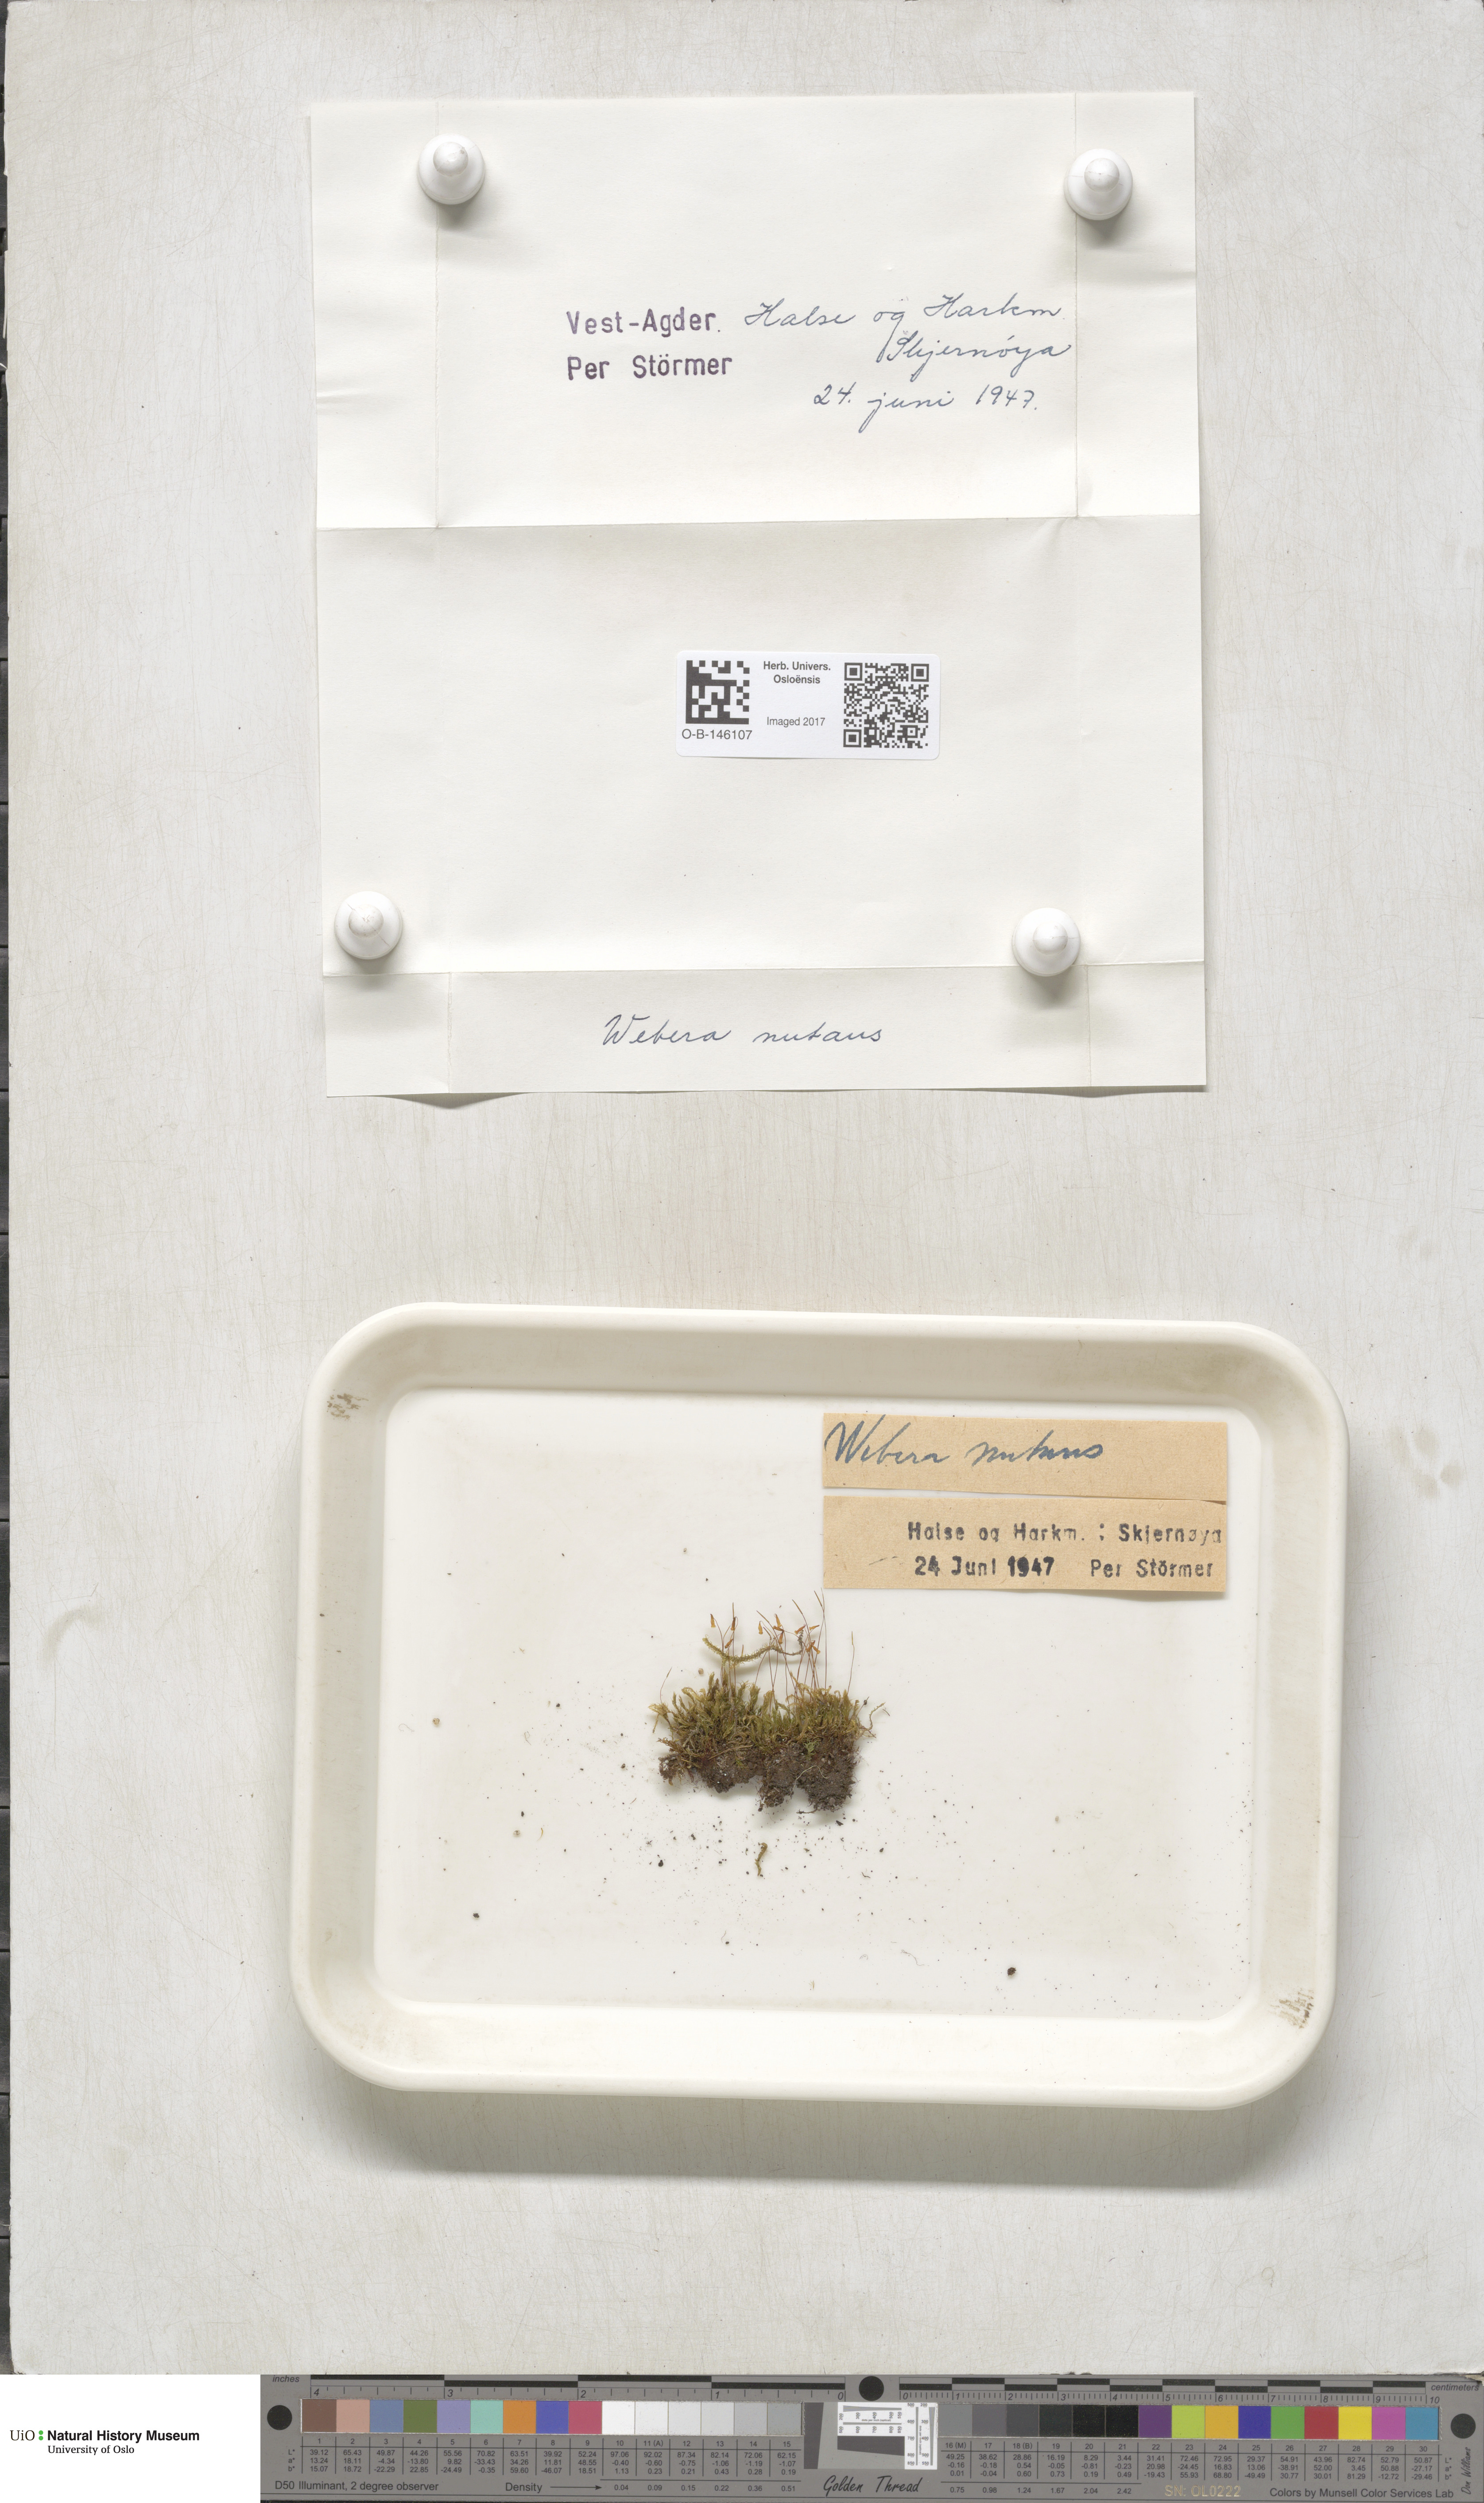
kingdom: Plantae
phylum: Bryophyta
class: Bryopsida
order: Bryales
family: Mniaceae
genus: Pohlia
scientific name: Pohlia nutans
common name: Nodding thread-moss
